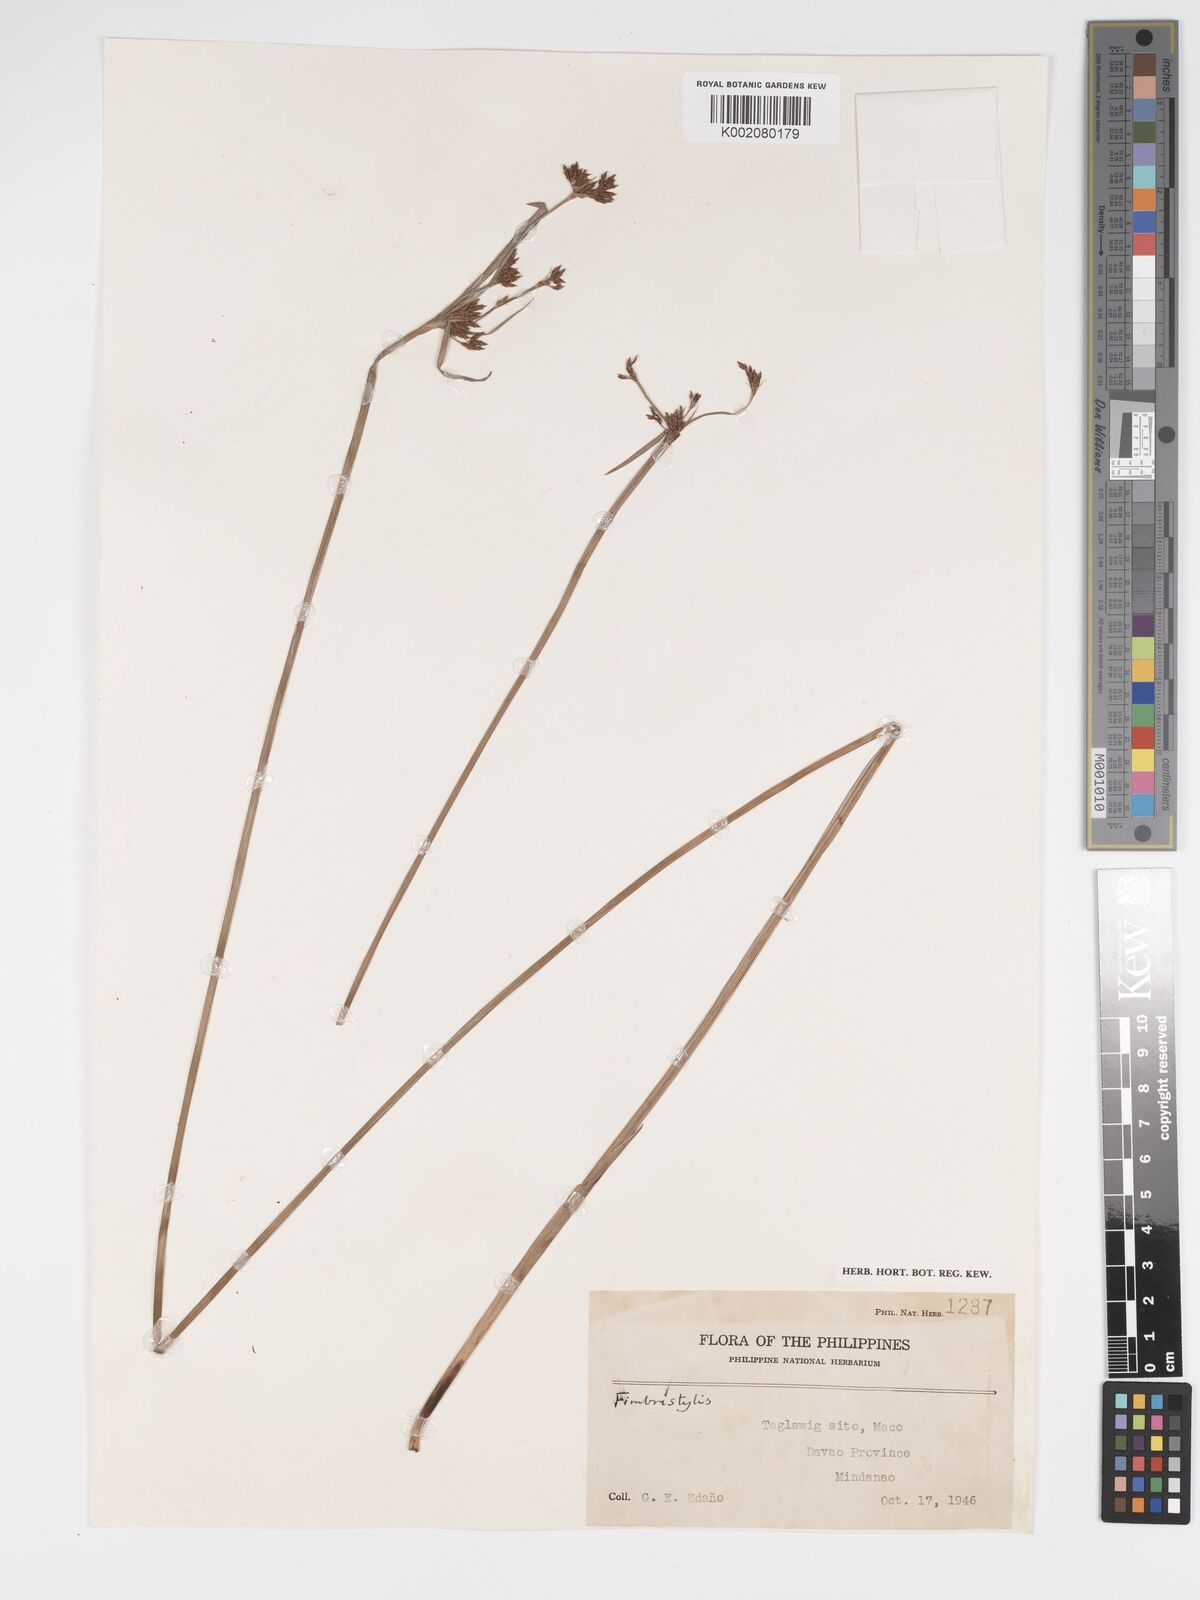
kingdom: Plantae
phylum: Tracheophyta
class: Liliopsida
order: Poales
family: Cyperaceae
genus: Fimbristylis
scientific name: Fimbristylis
